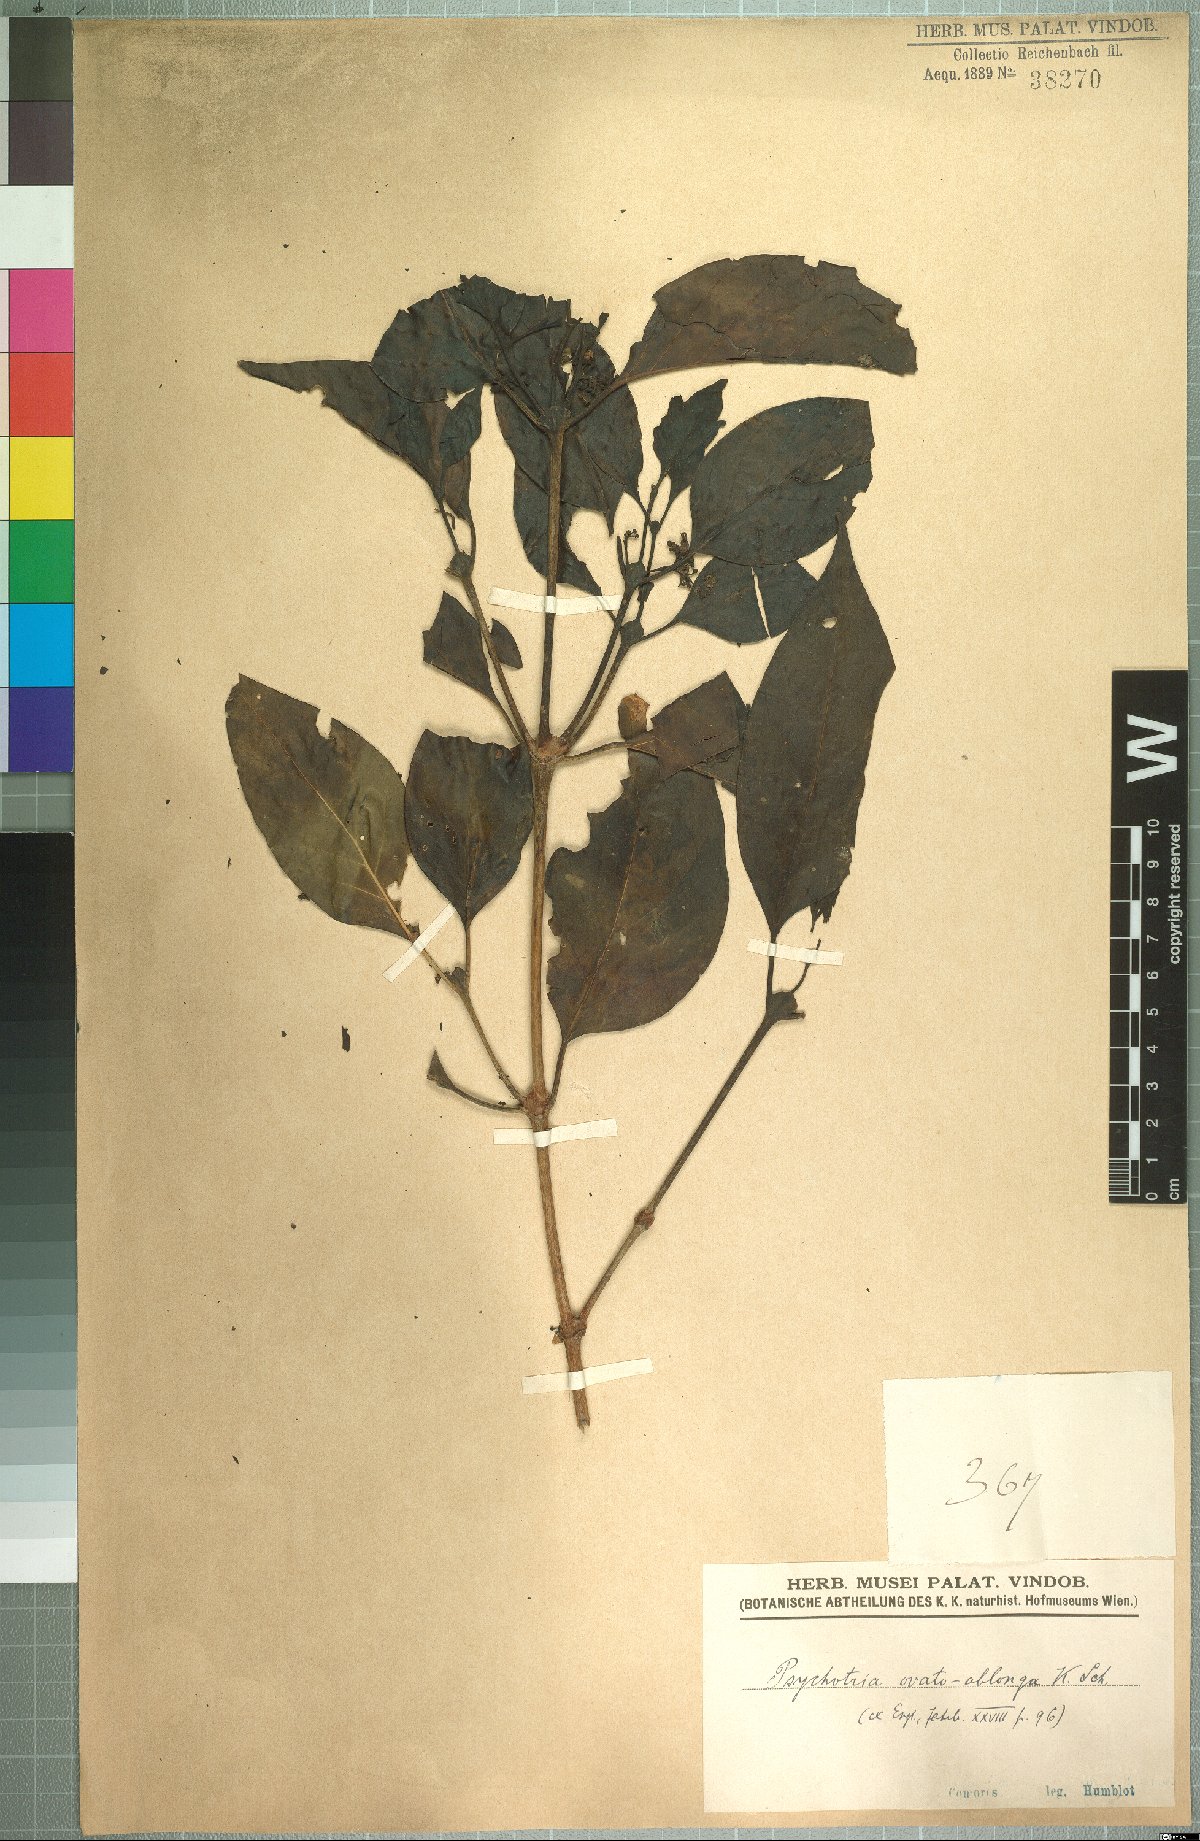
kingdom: Plantae
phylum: Tracheophyta
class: Magnoliopsida
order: Gentianales
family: Rubiaceae
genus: Peponidium
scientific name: Peponidium ovato-oblongum
